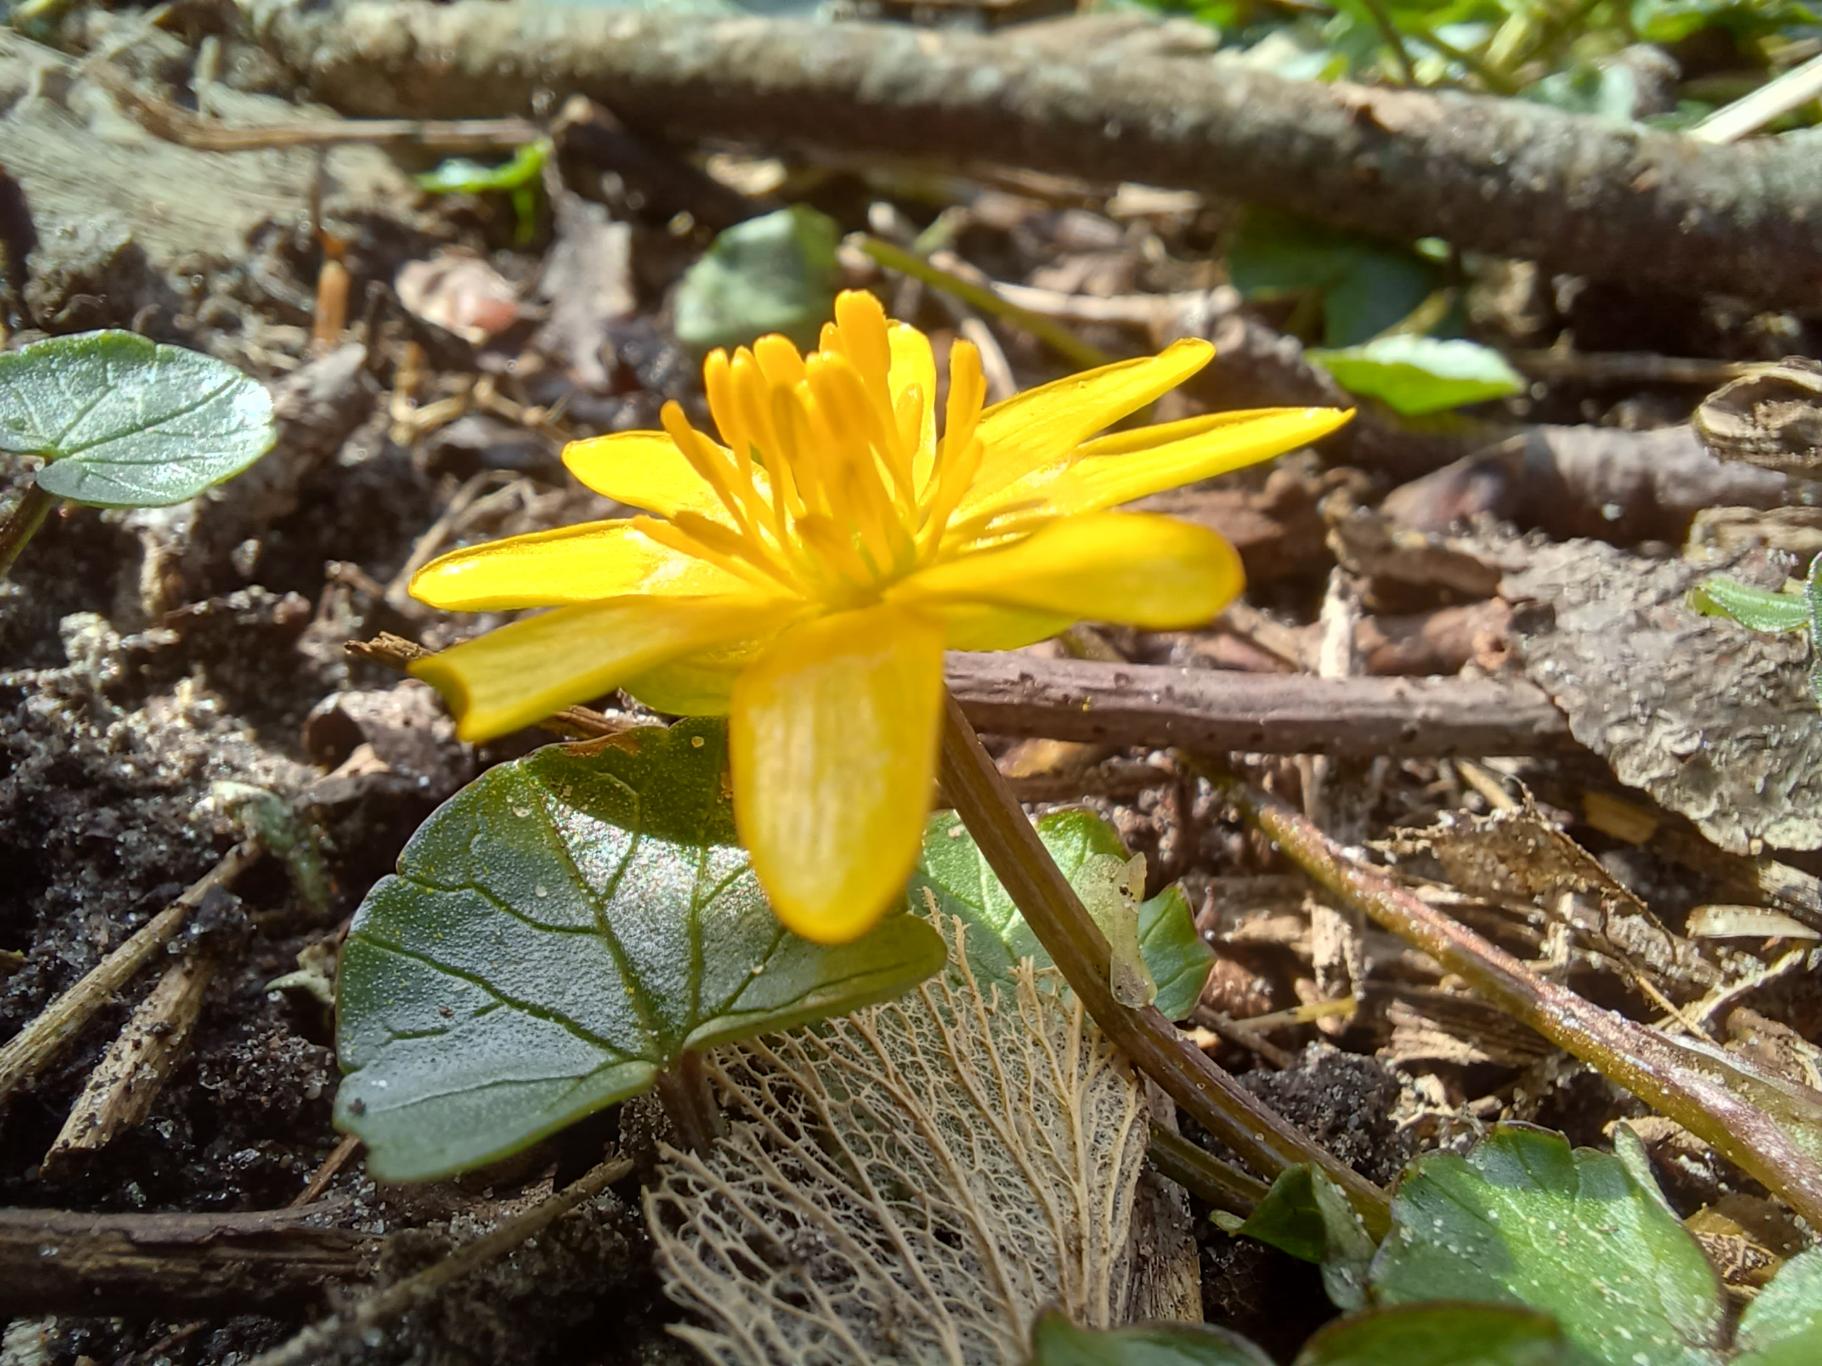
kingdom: Plantae
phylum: Tracheophyta
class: Magnoliopsida
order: Ranunculales
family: Ranunculaceae
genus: Ficaria
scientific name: Ficaria verna
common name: Vorterod
